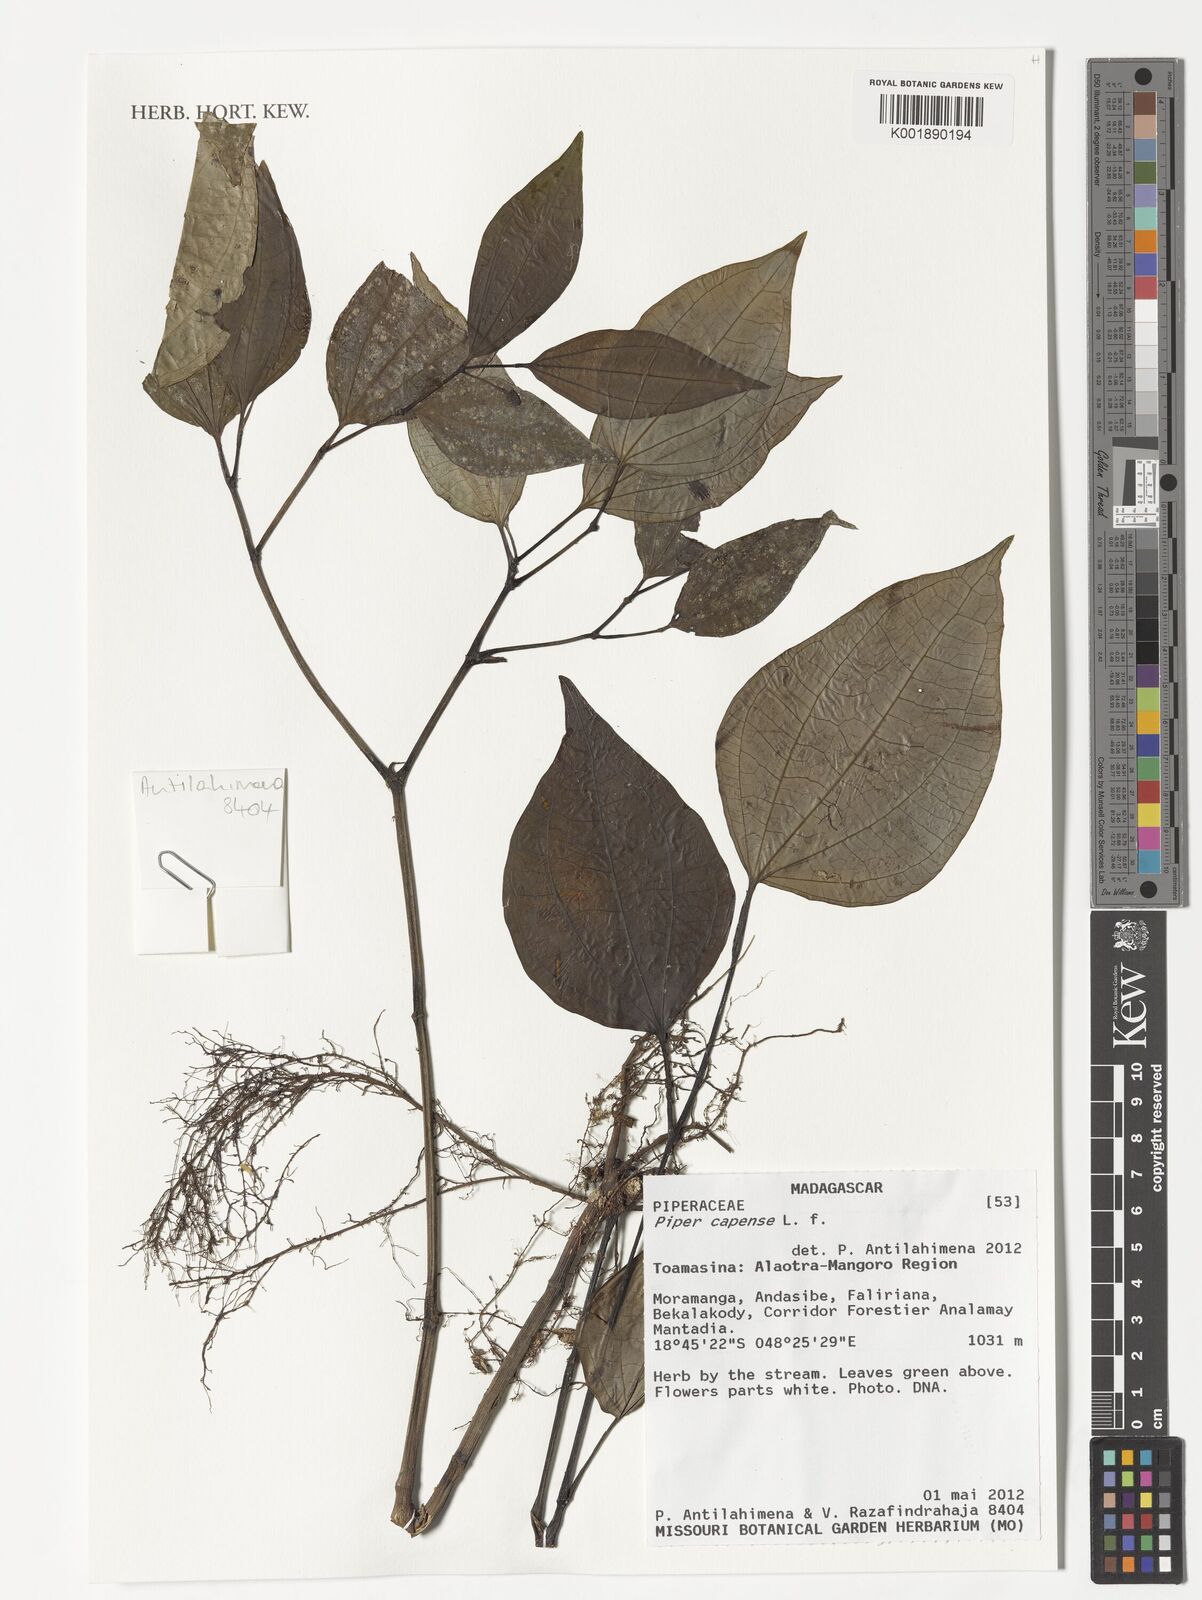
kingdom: Plantae
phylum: Tracheophyta
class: Magnoliopsida
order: Piperales
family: Piperaceae
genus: Piper
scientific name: Piper capense
